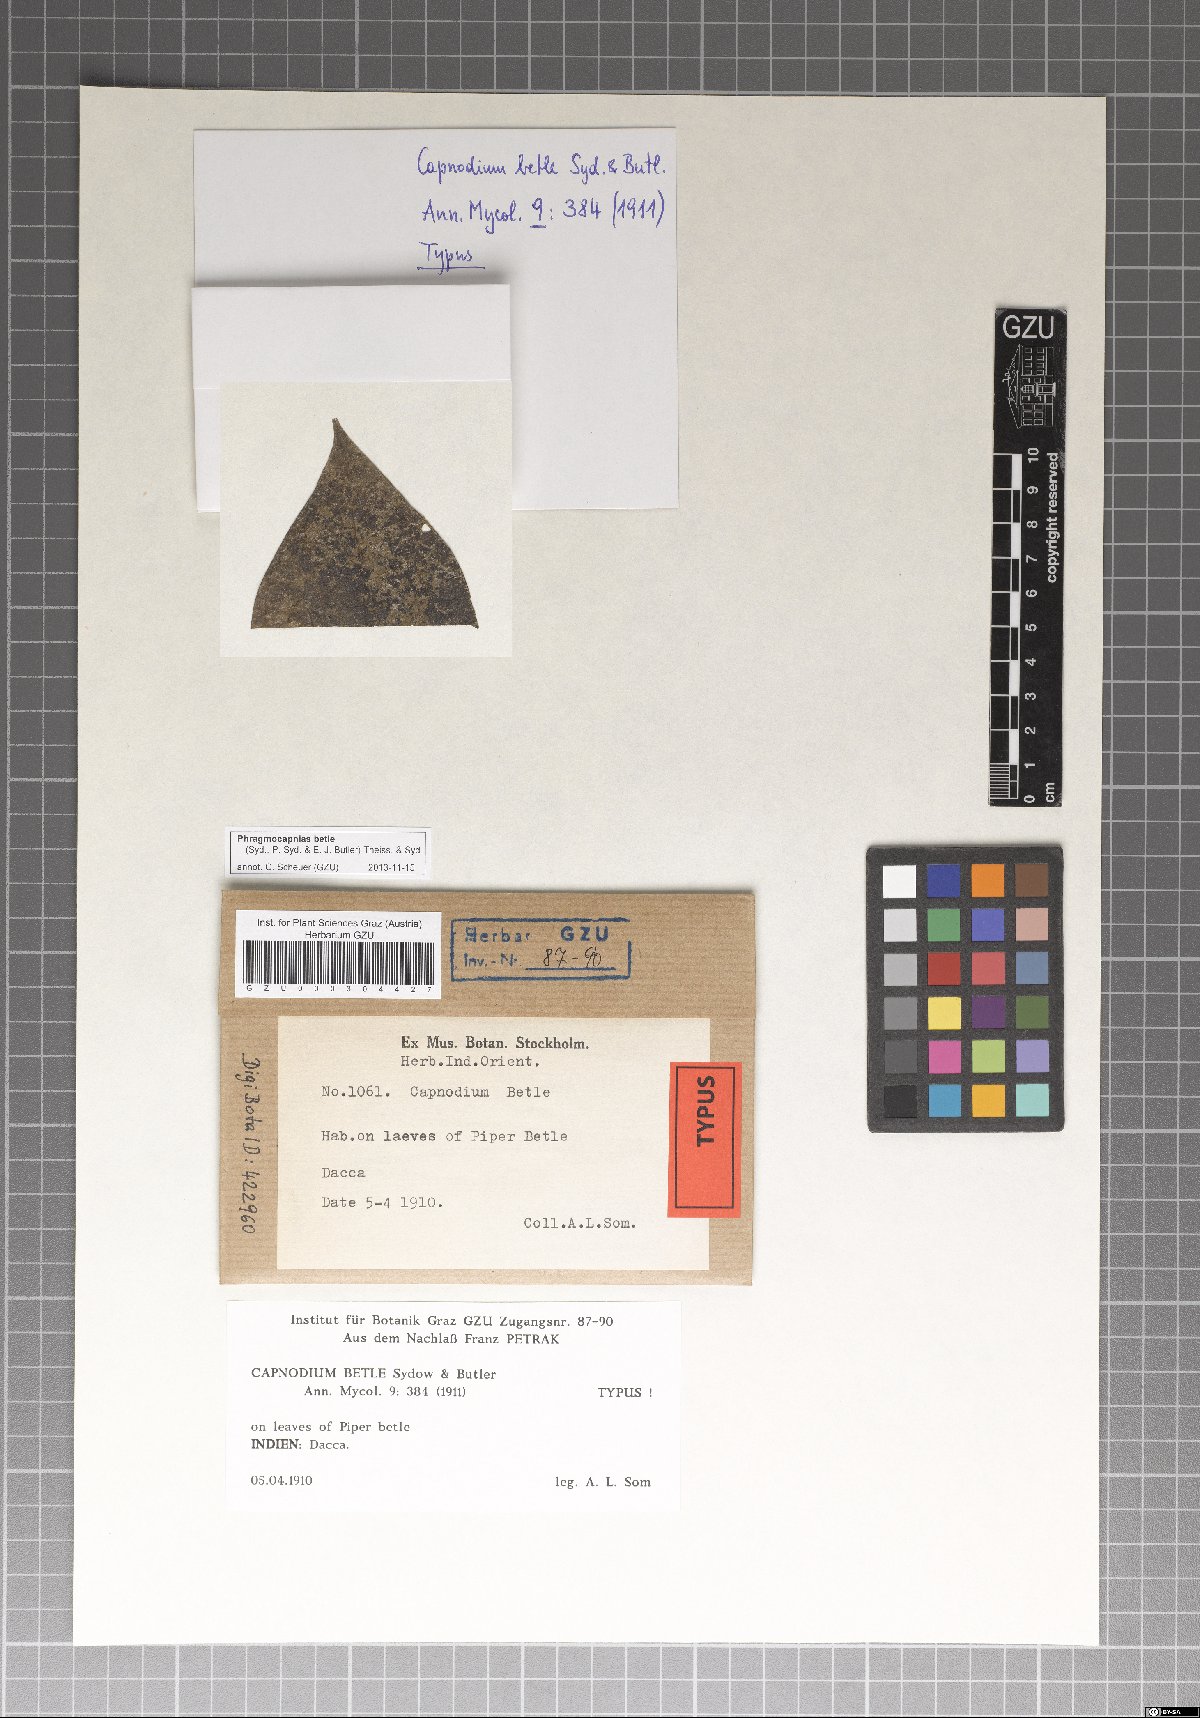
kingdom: Fungi
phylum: Ascomycota
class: Dothideomycetes
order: Capnodiales
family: Capnodiaceae
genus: Phragmocapnias
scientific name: Phragmocapnias betle
